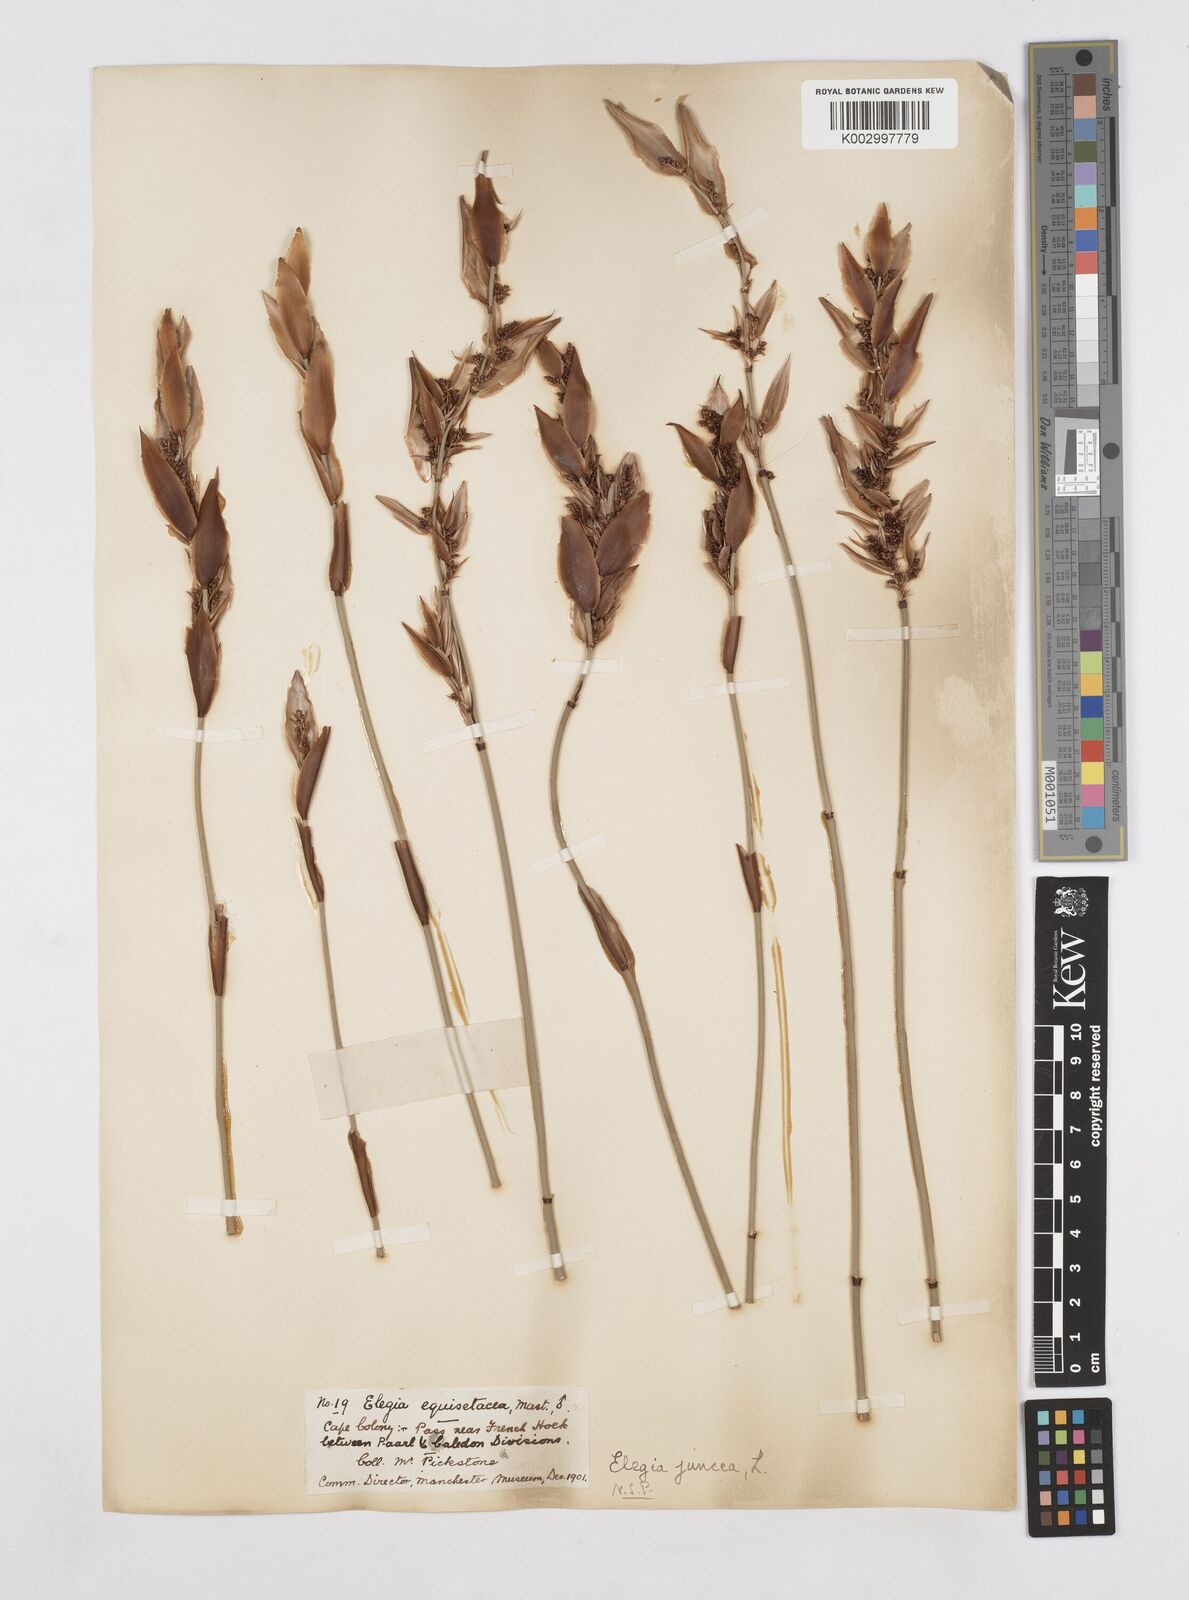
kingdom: Plantae
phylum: Tracheophyta
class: Liliopsida
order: Poales
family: Restionaceae
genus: Elegia
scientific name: Elegia juncea
